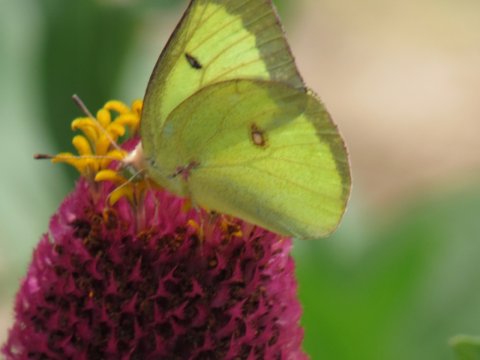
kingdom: Animalia
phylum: Arthropoda
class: Insecta
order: Lepidoptera
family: Pieridae
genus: Colias
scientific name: Colias philodice
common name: Clouded Sulphur
